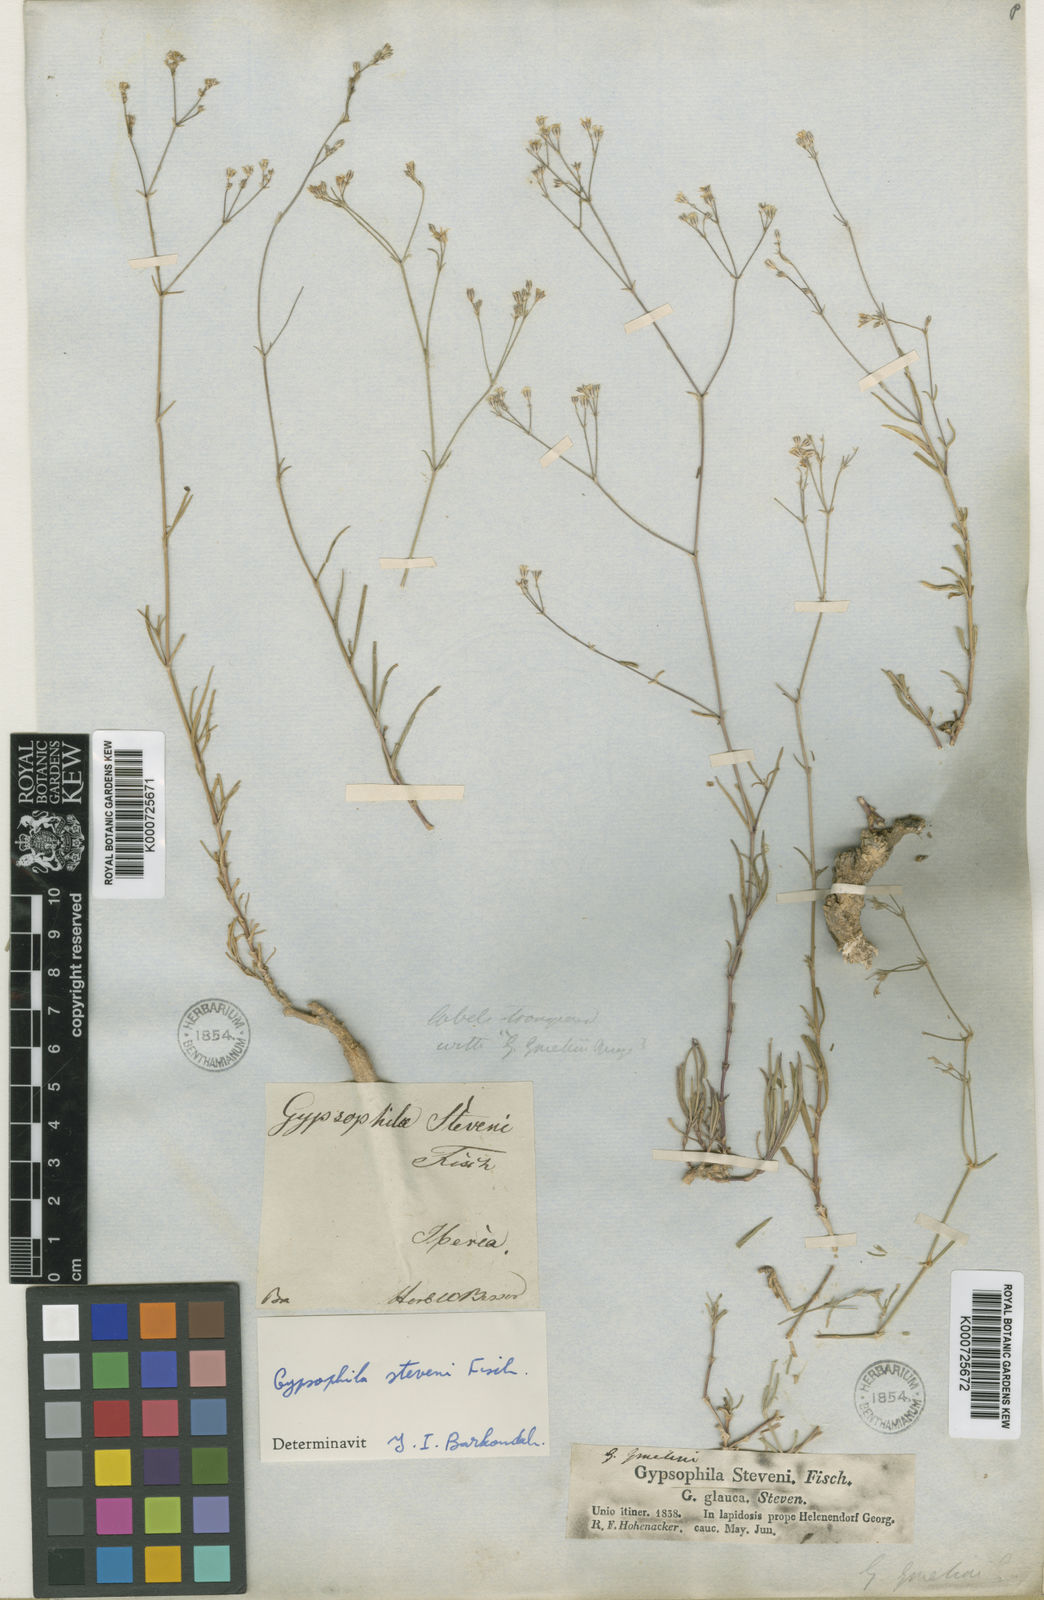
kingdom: Plantae
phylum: Tracheophyta
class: Magnoliopsida
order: Caryophyllales
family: Caryophyllaceae
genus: Gypsophila
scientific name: Gypsophila stevenii
